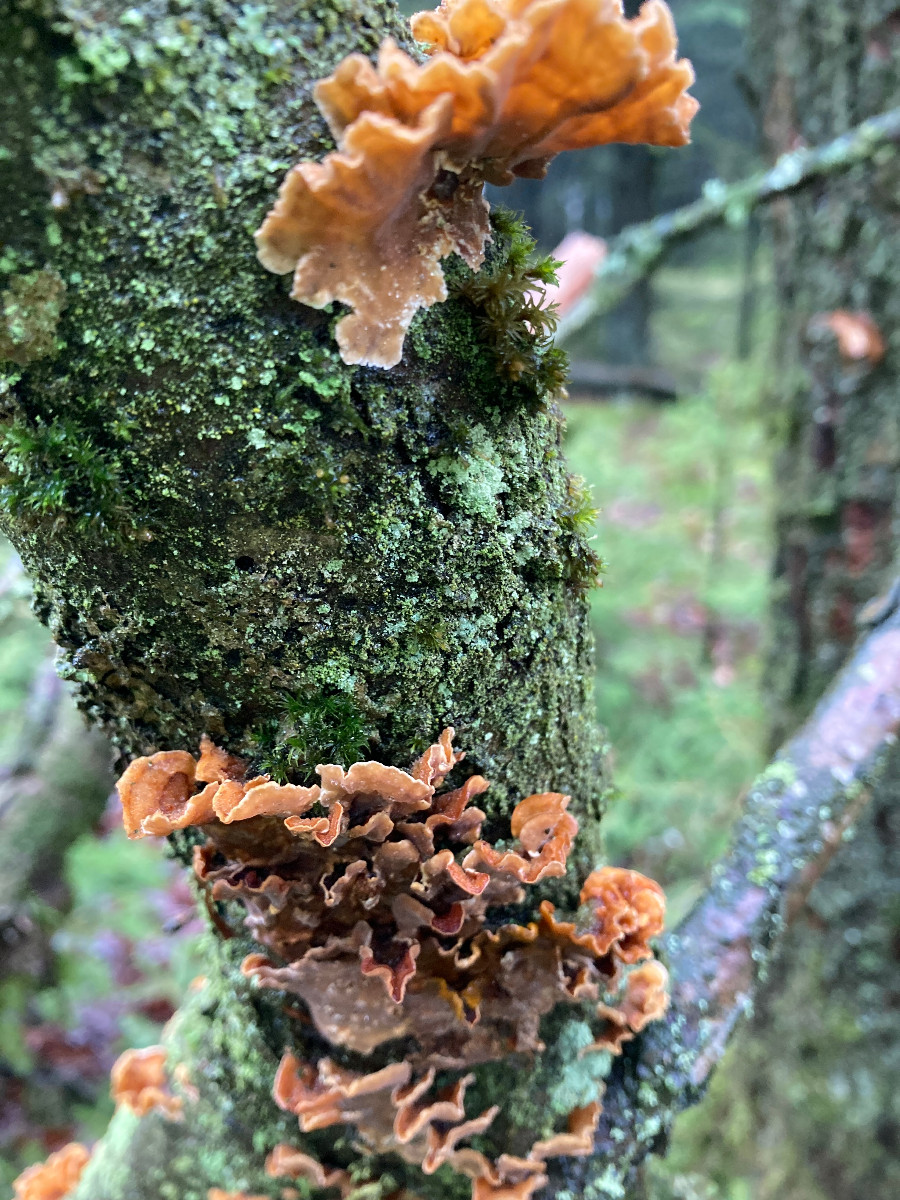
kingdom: Fungi
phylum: Basidiomycota
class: Agaricomycetes
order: Russulales
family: Stereaceae
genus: Stereum
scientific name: Stereum hirsutum
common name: håret lædersvamp
